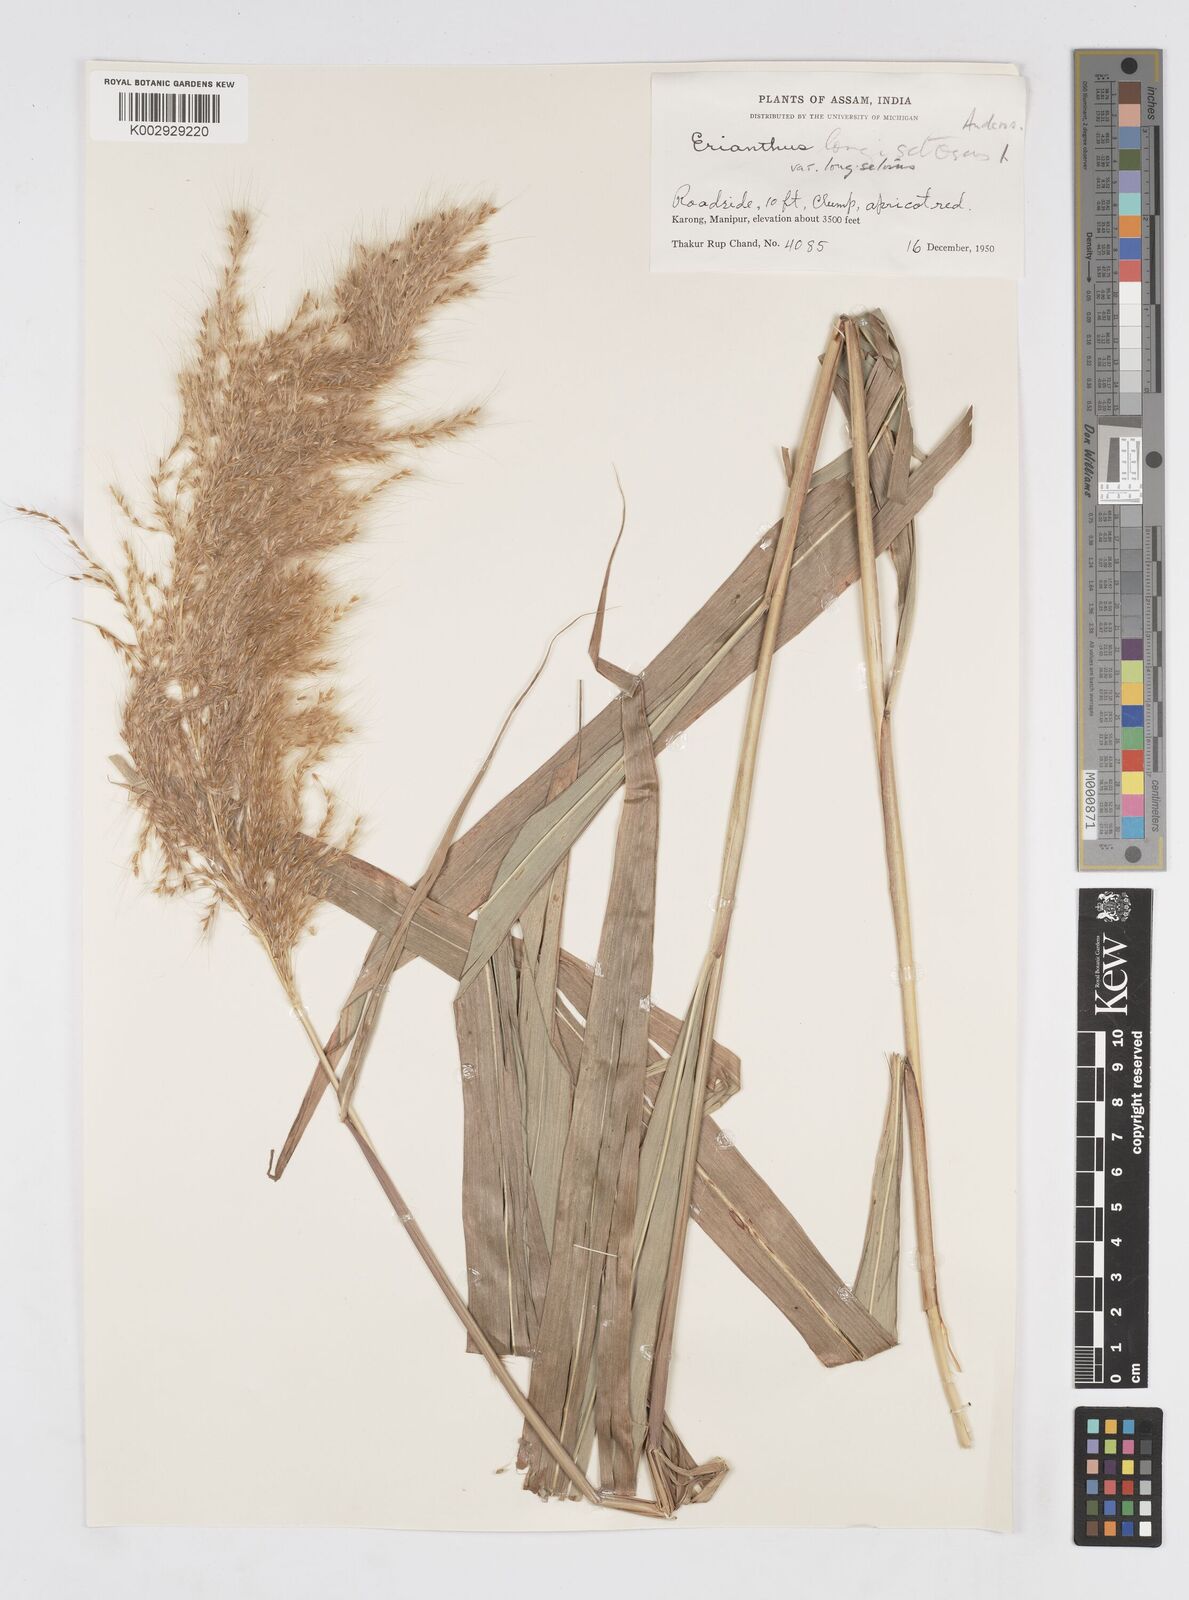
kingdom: Plantae
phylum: Tracheophyta
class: Liliopsida
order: Poales
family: Poaceae
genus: Melinis
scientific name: Melinis longiseta
